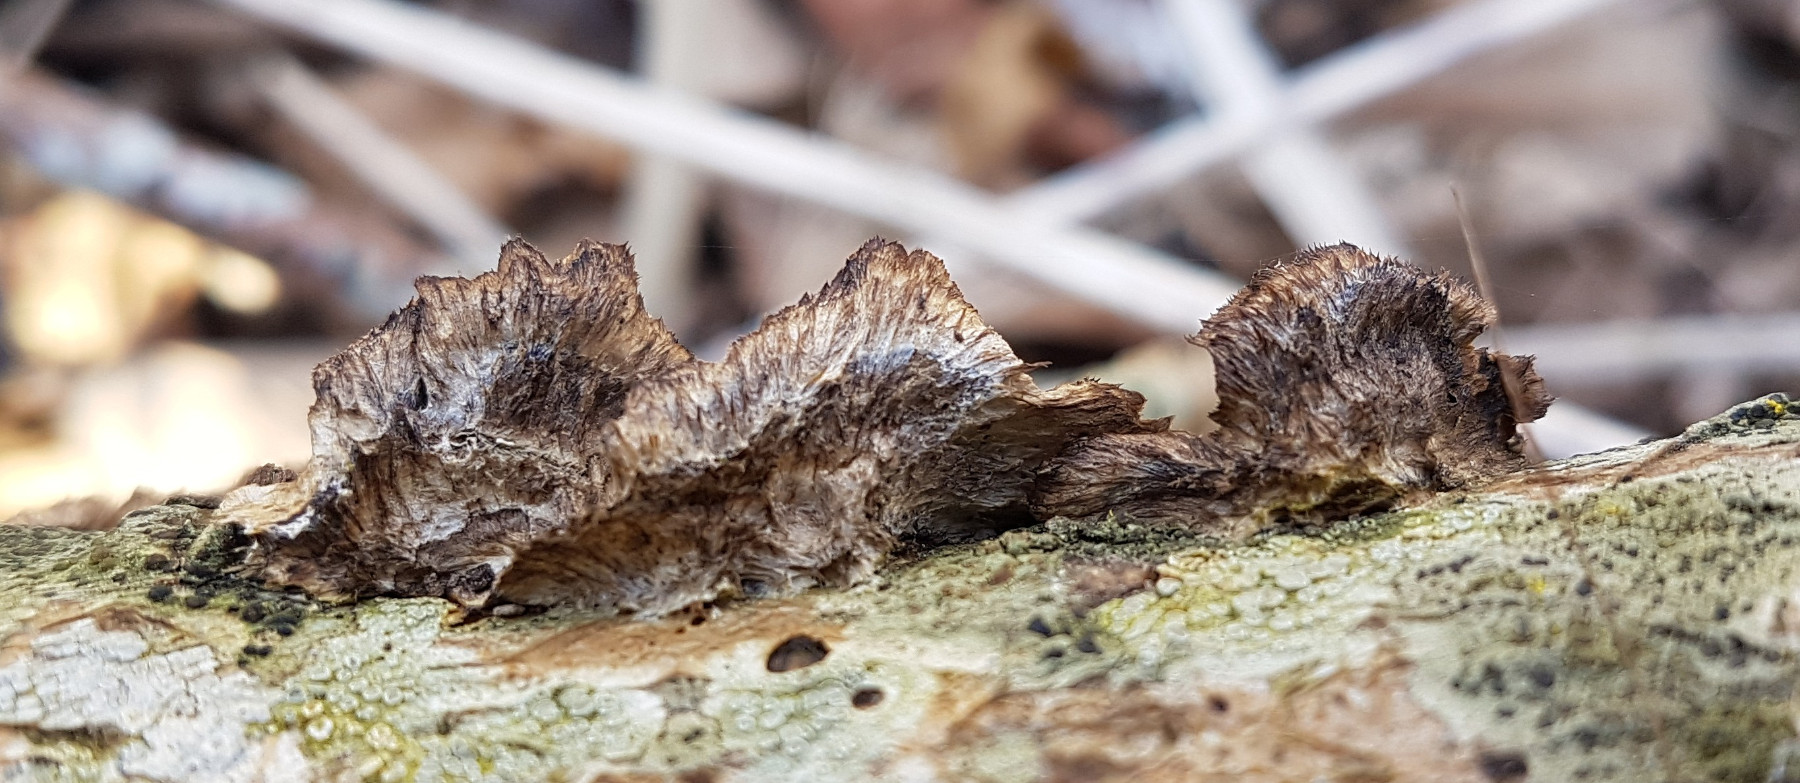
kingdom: Fungi
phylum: Basidiomycota
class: Agaricomycetes
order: Polyporales
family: Phanerochaetaceae
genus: Bjerkandera
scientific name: Bjerkandera adusta
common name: sveden sodporesvamp
